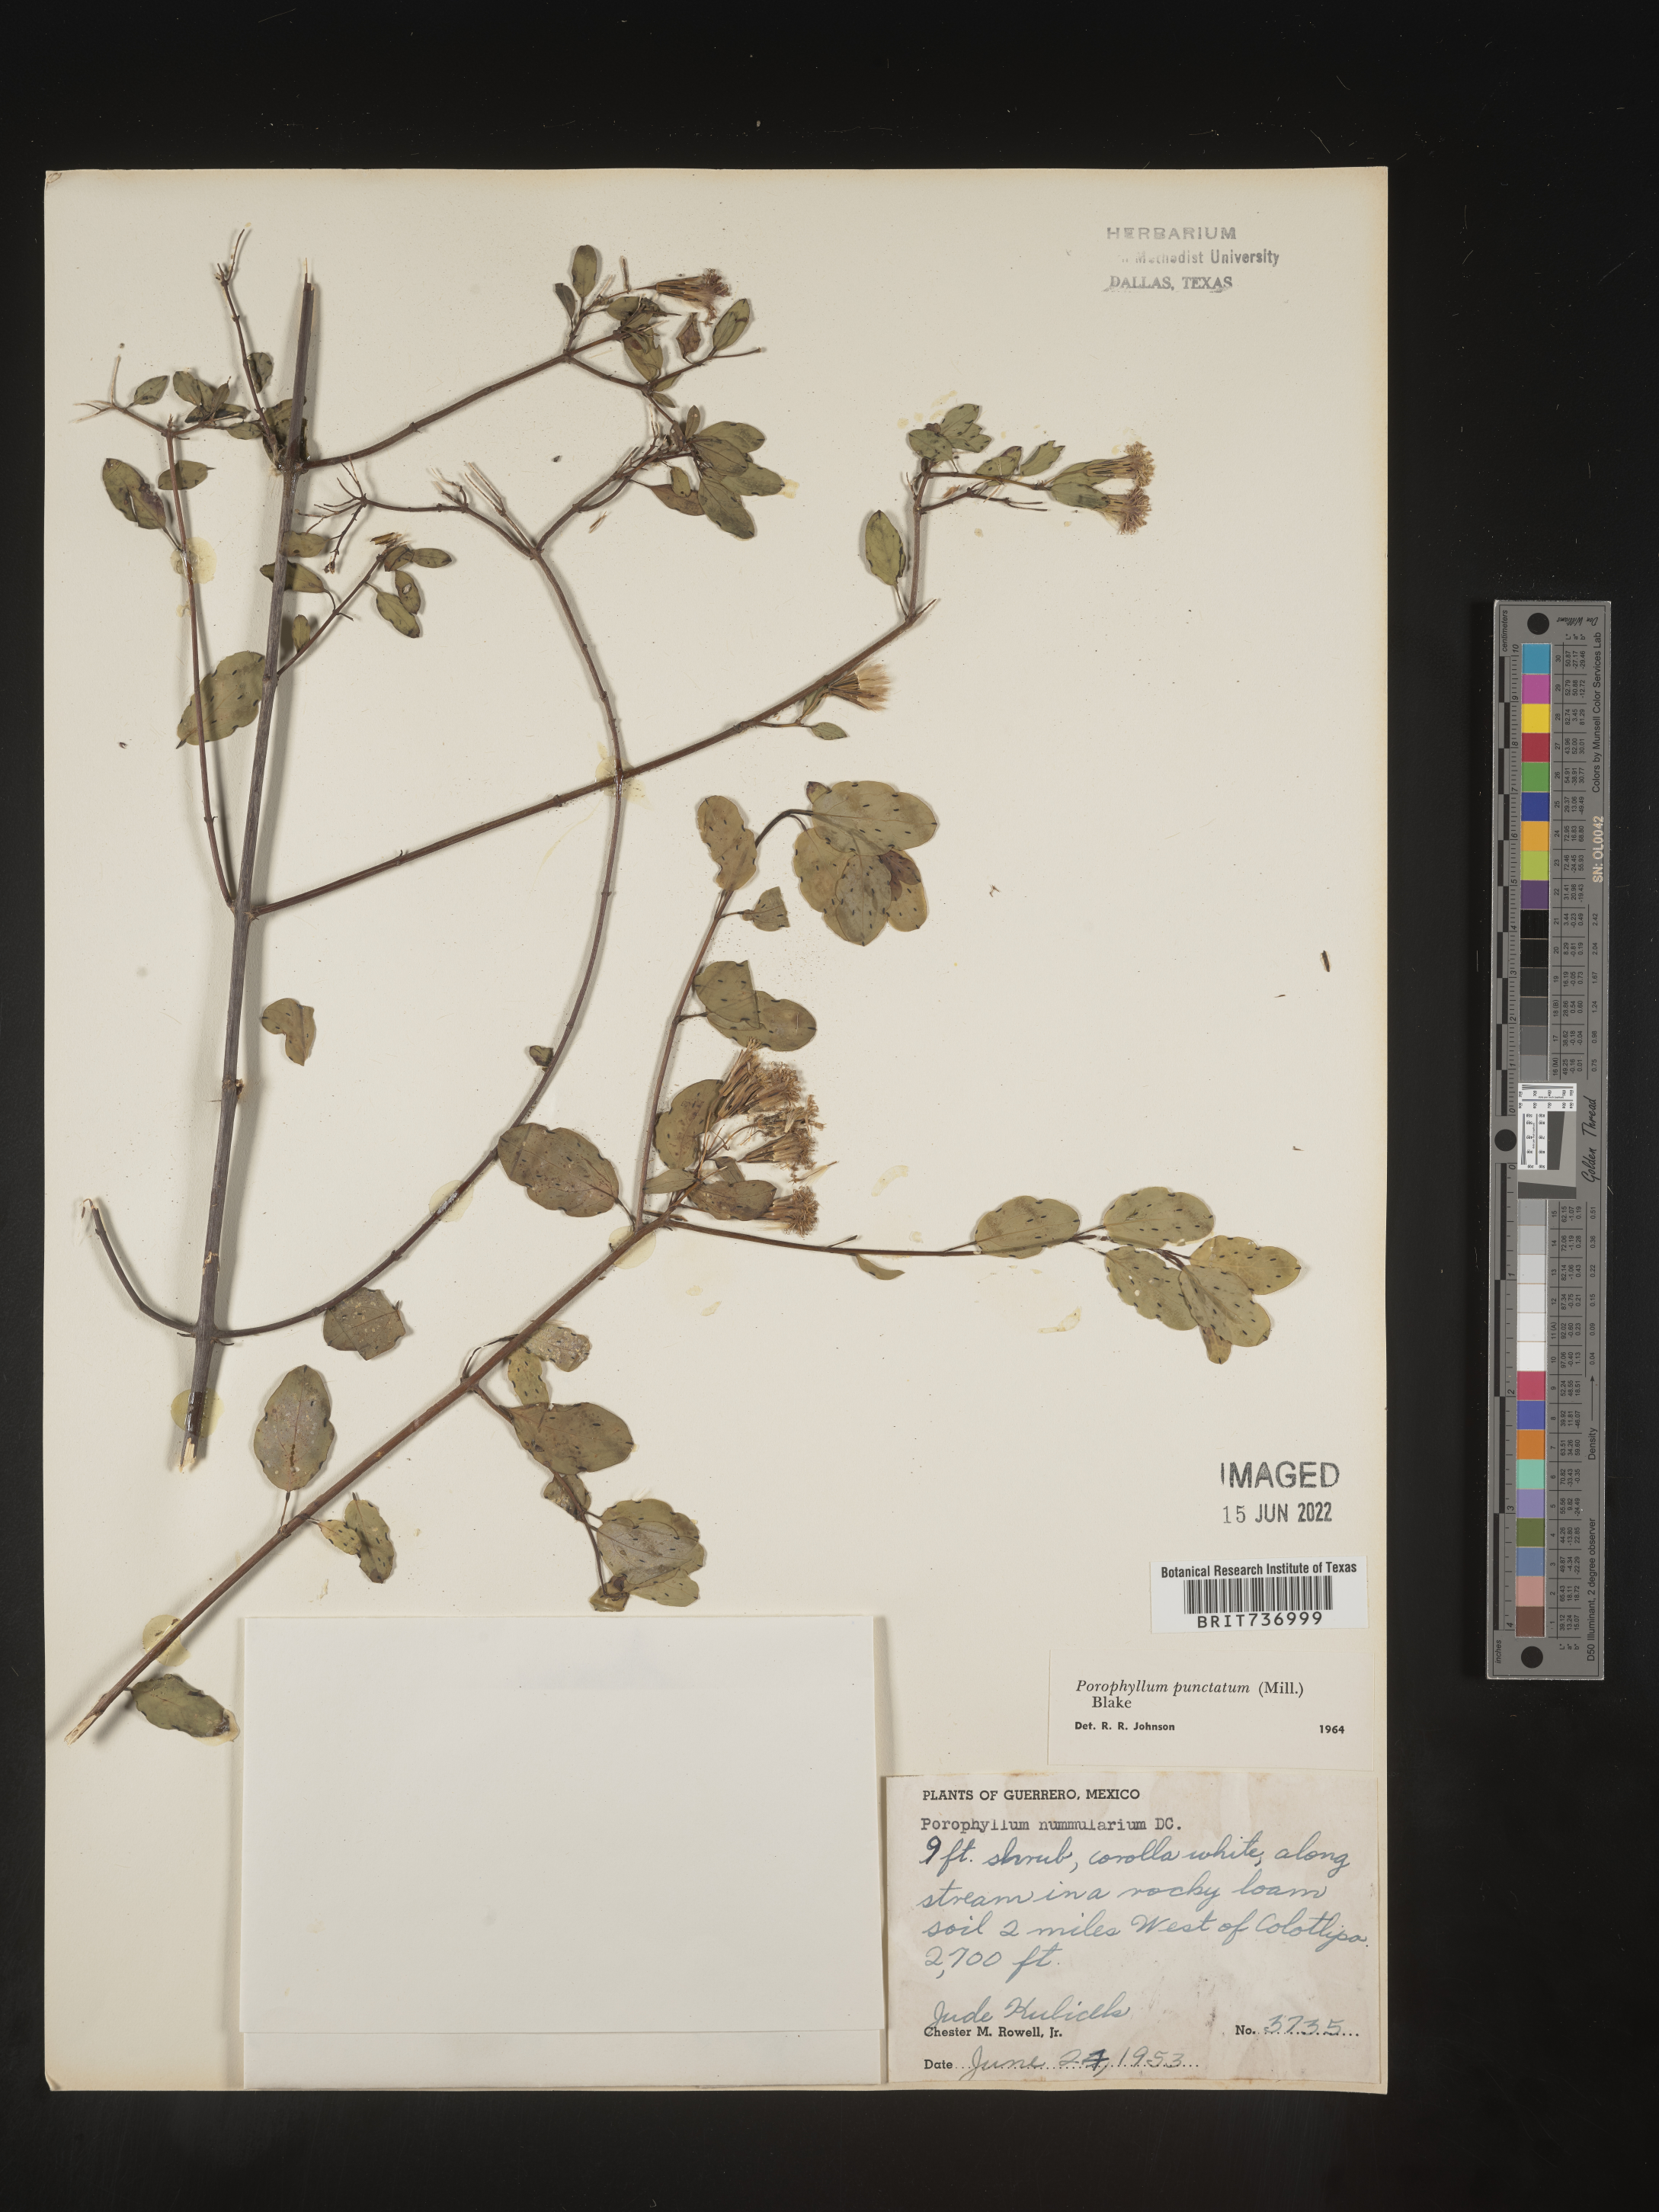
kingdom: Plantae
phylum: Tracheophyta
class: Magnoliopsida
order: Asterales
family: Asteraceae
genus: Porophyllum
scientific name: Porophyllum
